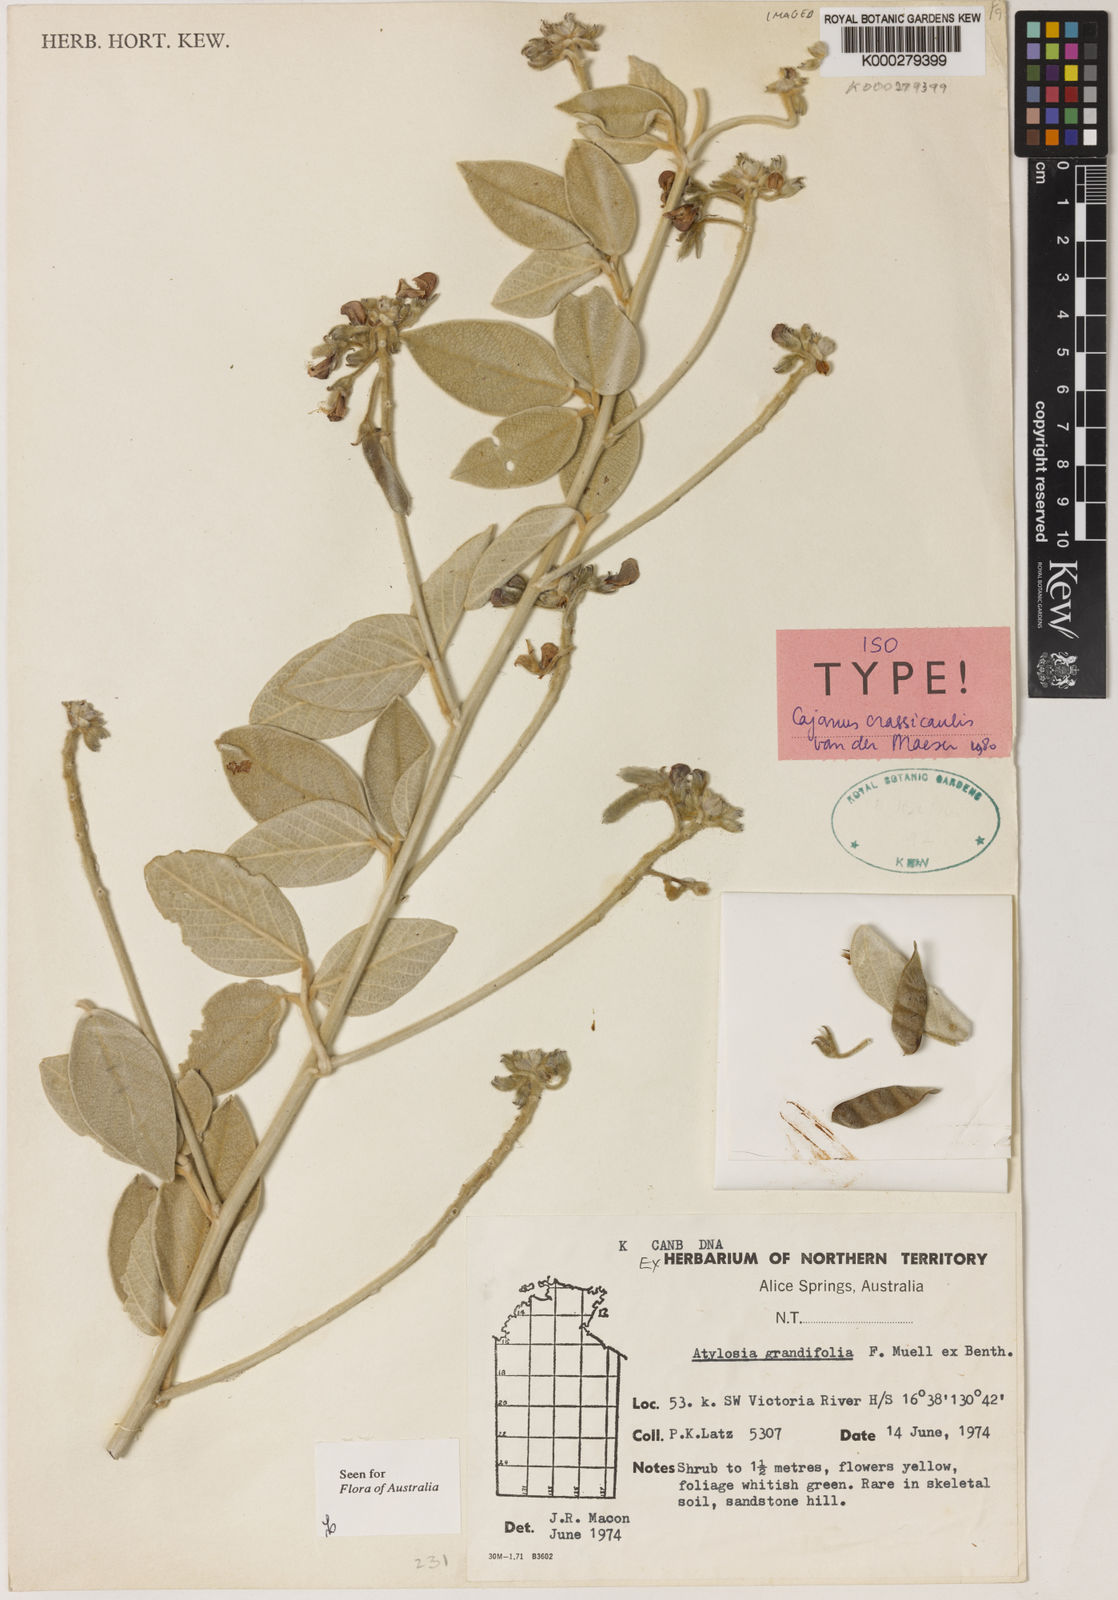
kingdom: Plantae
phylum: Tracheophyta
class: Magnoliopsida
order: Fabales
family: Fabaceae
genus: Cajanus
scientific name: Cajanus crassicaulis
